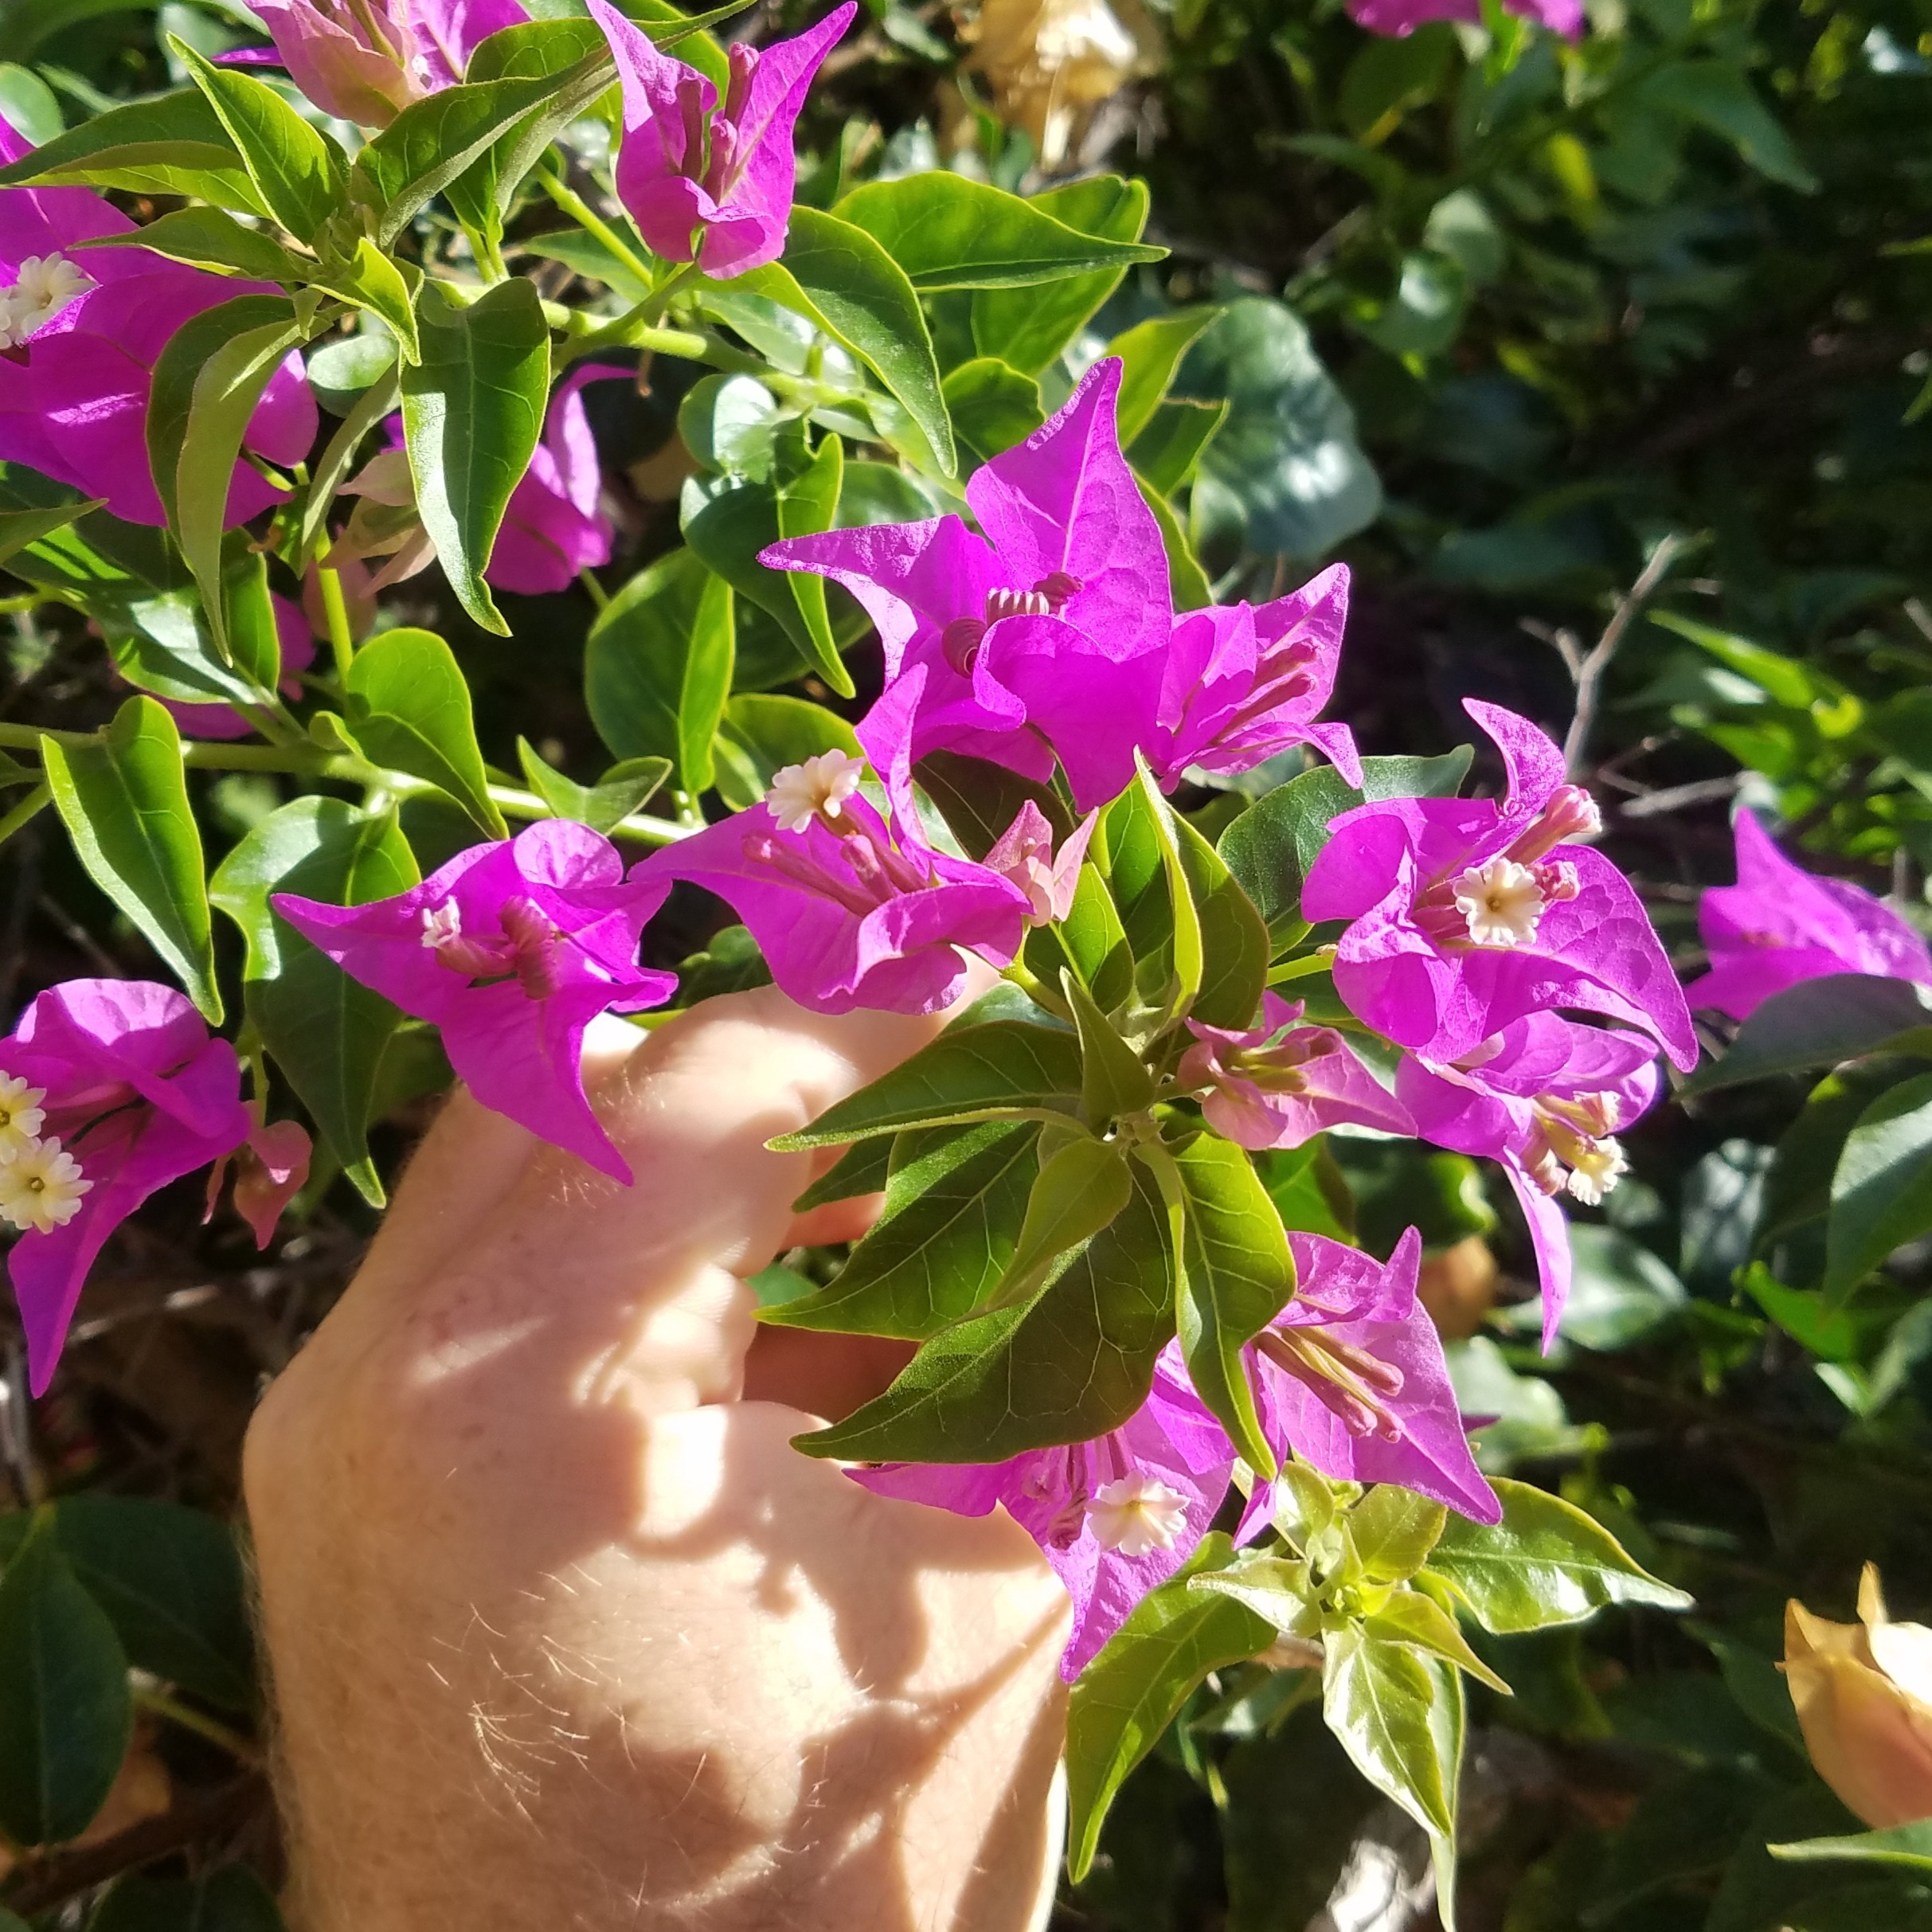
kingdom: Plantae
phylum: Tracheophyta
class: Magnoliopsida
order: Caryophyllales
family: Nyctaginaceae
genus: Bougainvillea
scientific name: Bougainvillea spectabilis
